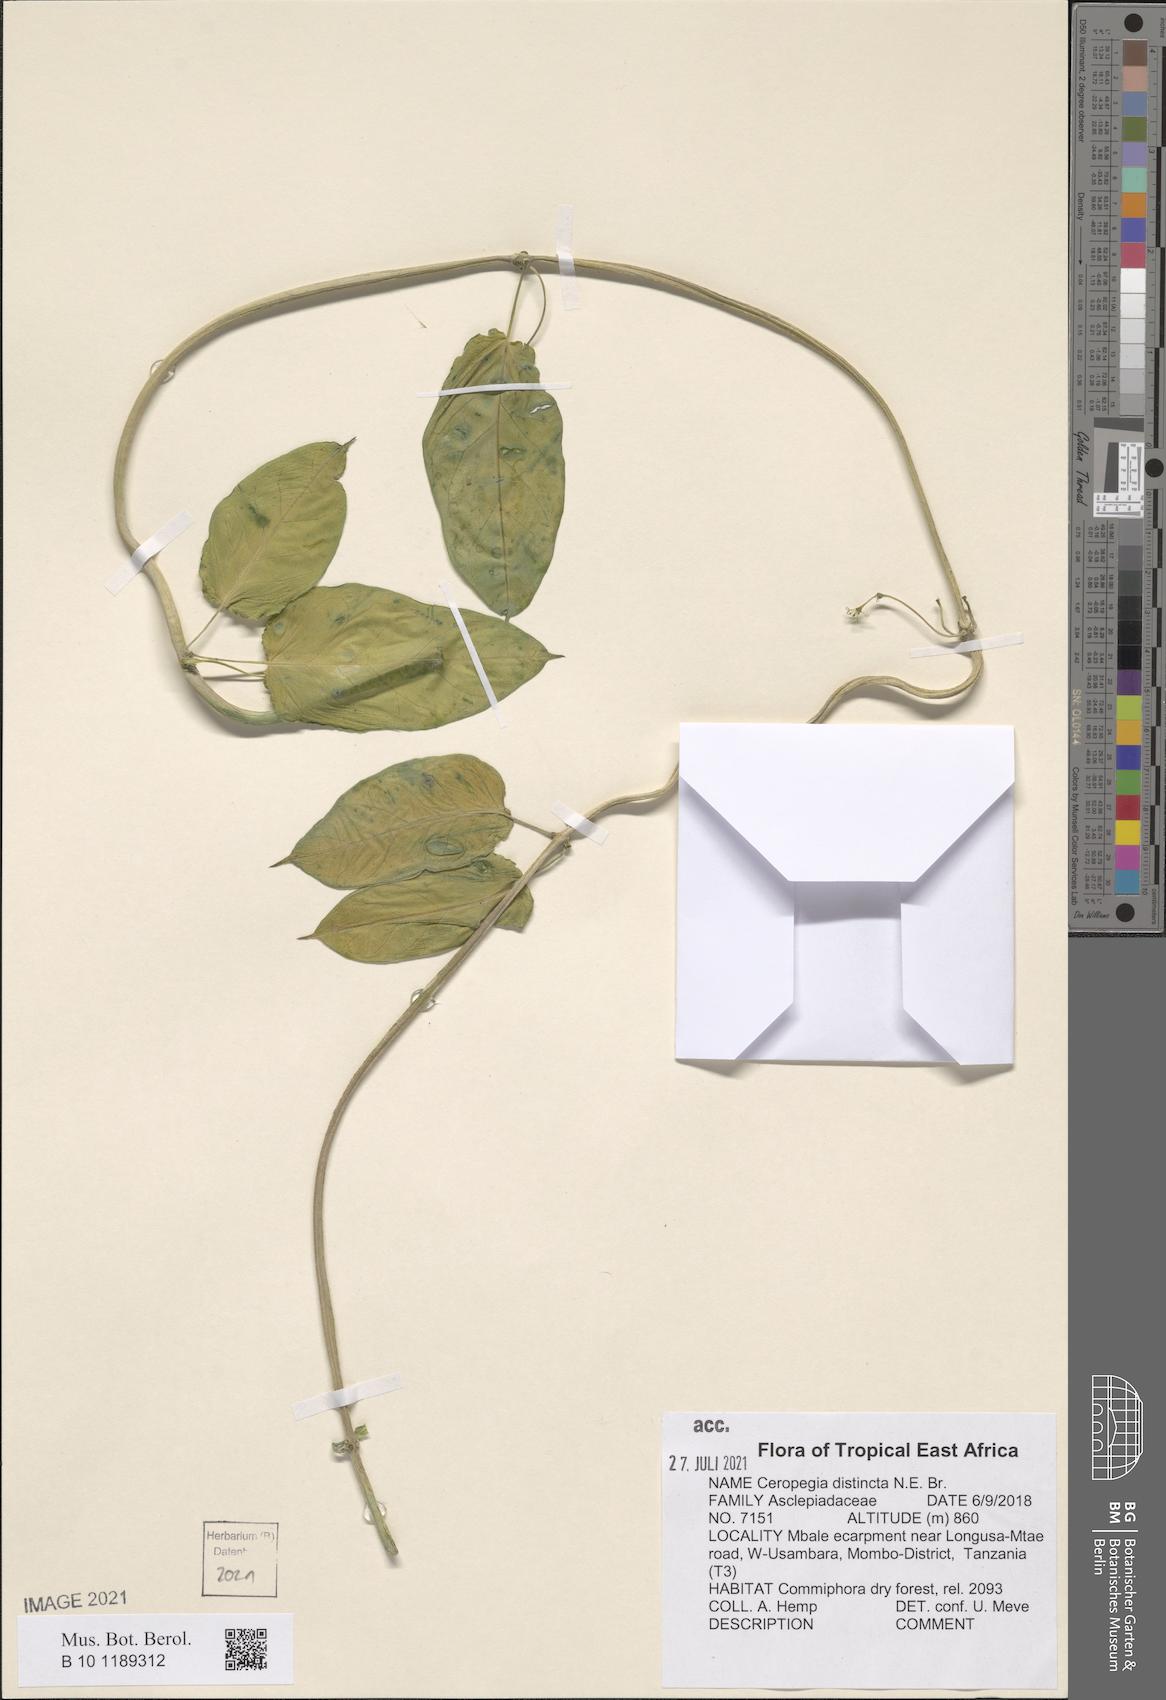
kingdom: Plantae
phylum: Tracheophyta
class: Magnoliopsida
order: Gentianales
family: Apocynaceae
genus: Ceropegia
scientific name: Ceropegia distincta
